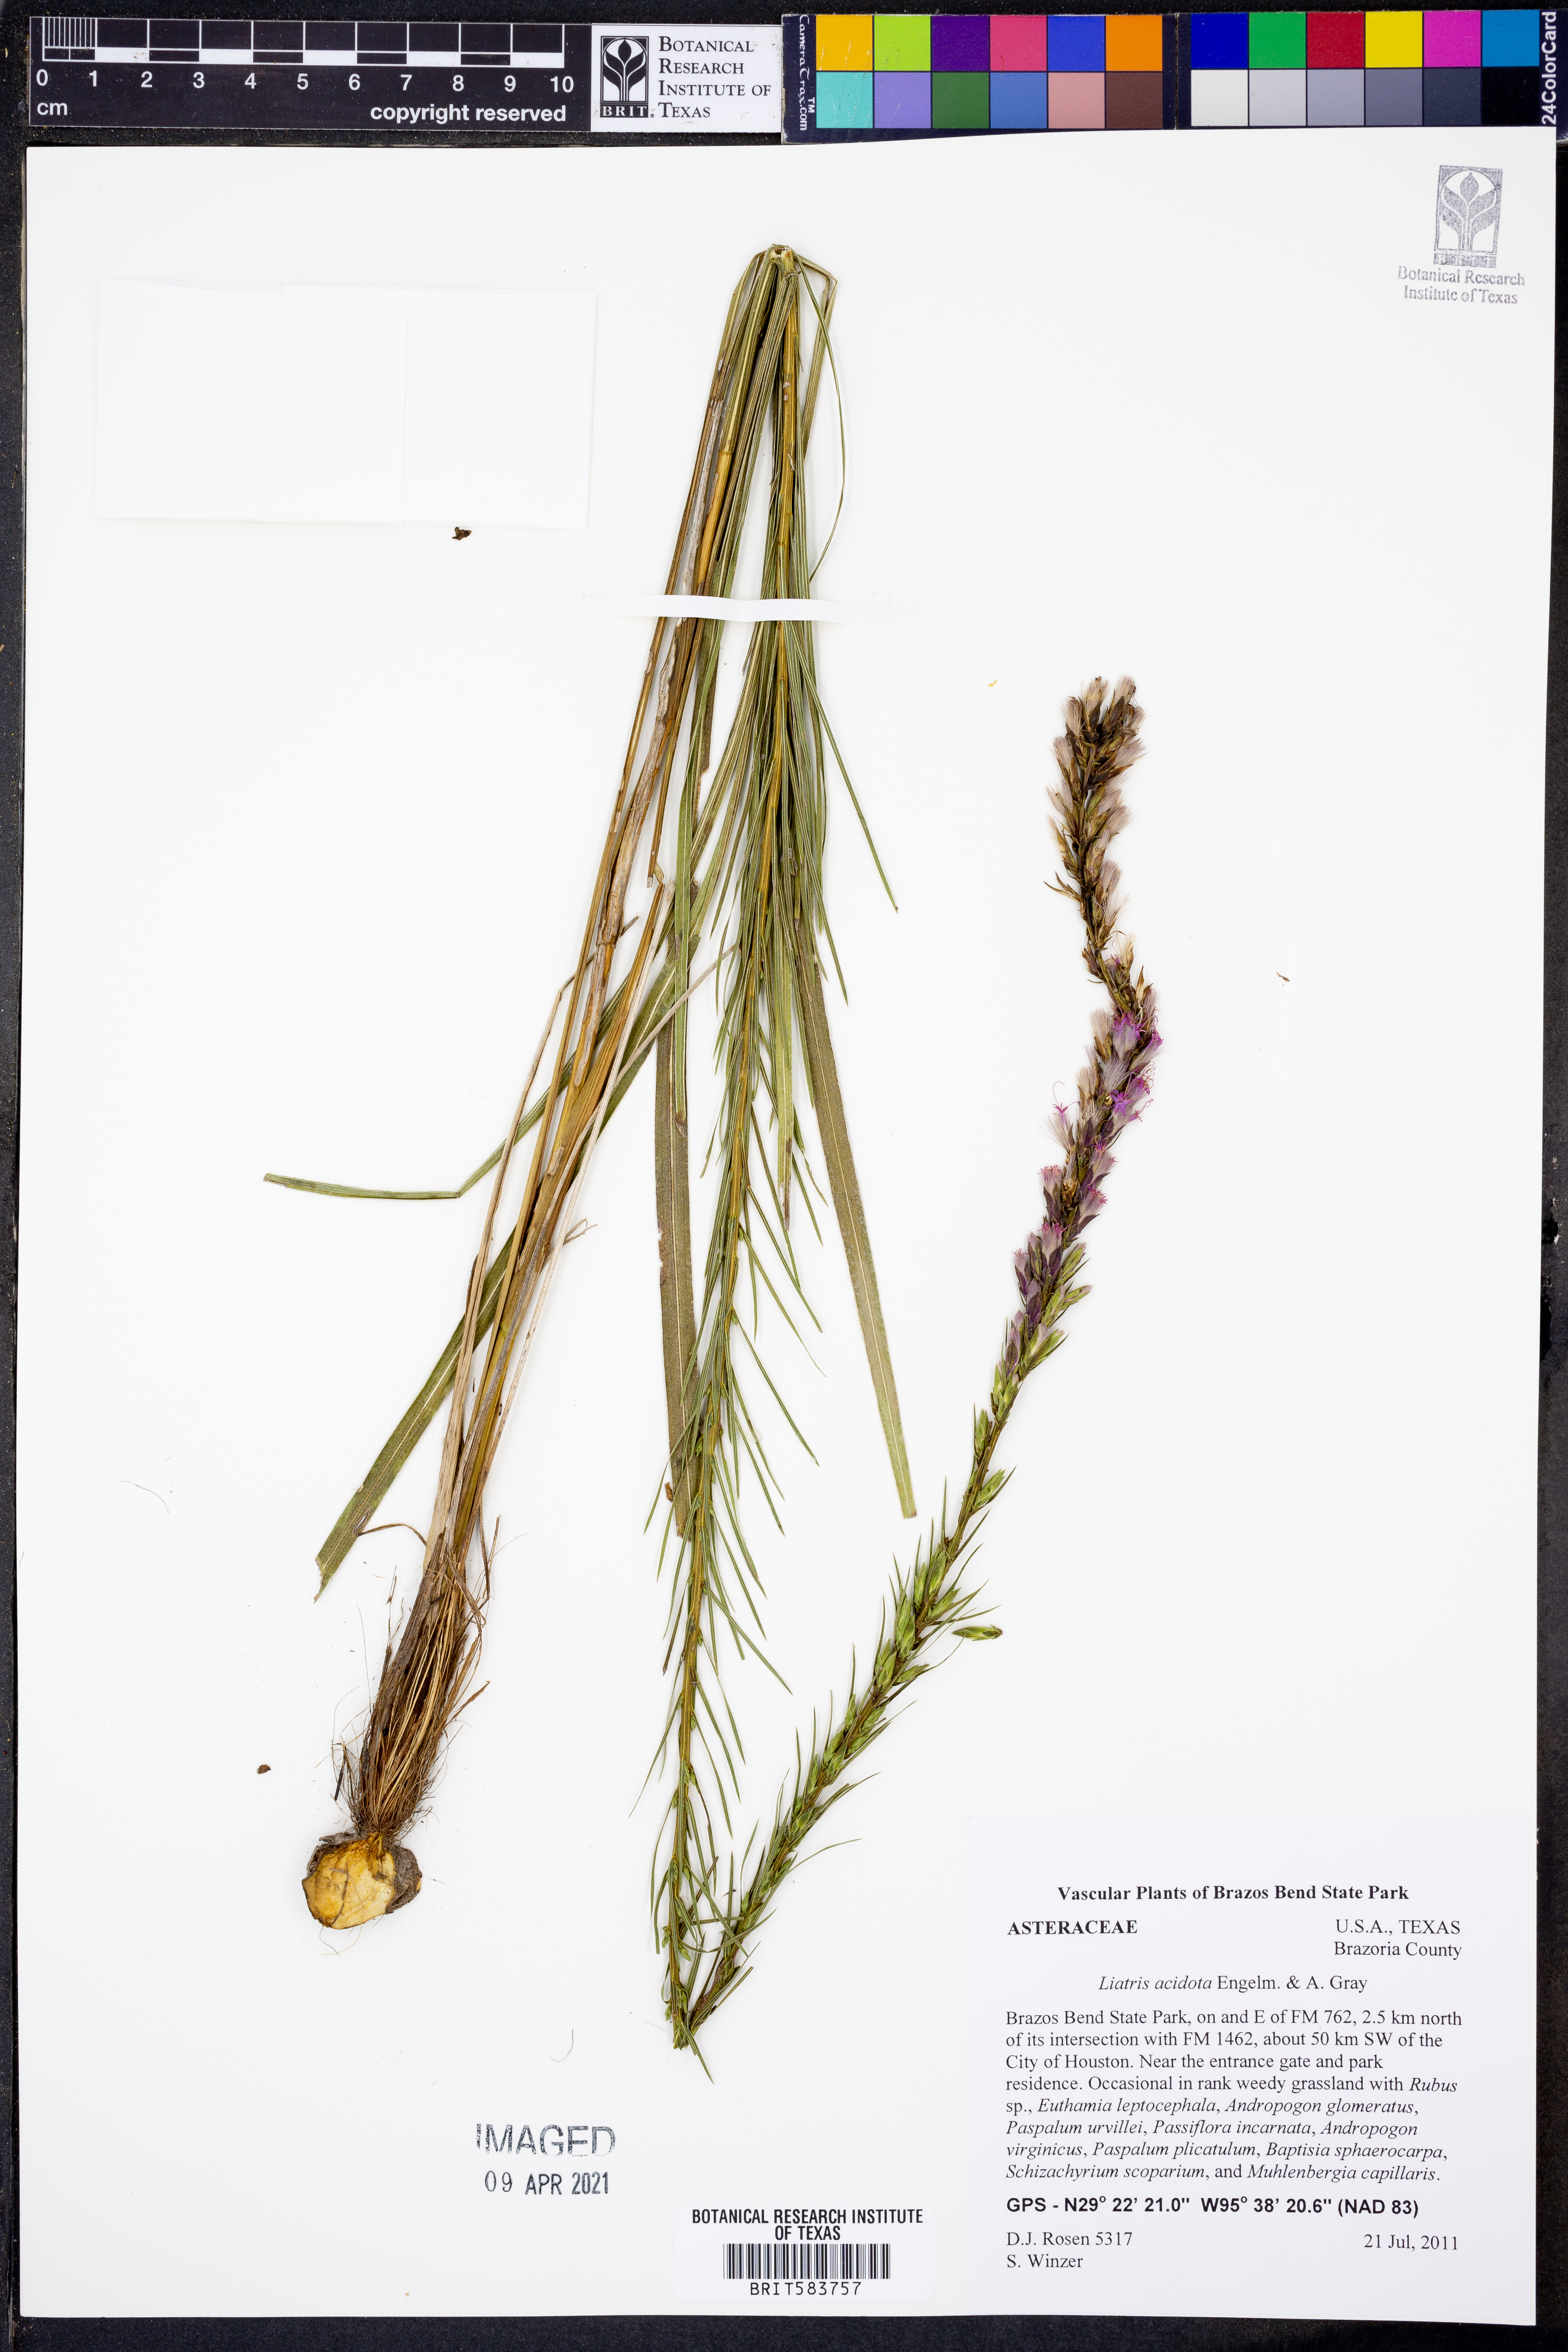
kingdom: Plantae
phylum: Tracheophyta
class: Magnoliopsida
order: Asterales
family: Asteraceae
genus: Liatris
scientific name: Liatris acidota
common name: Gulf coast gayfeather
